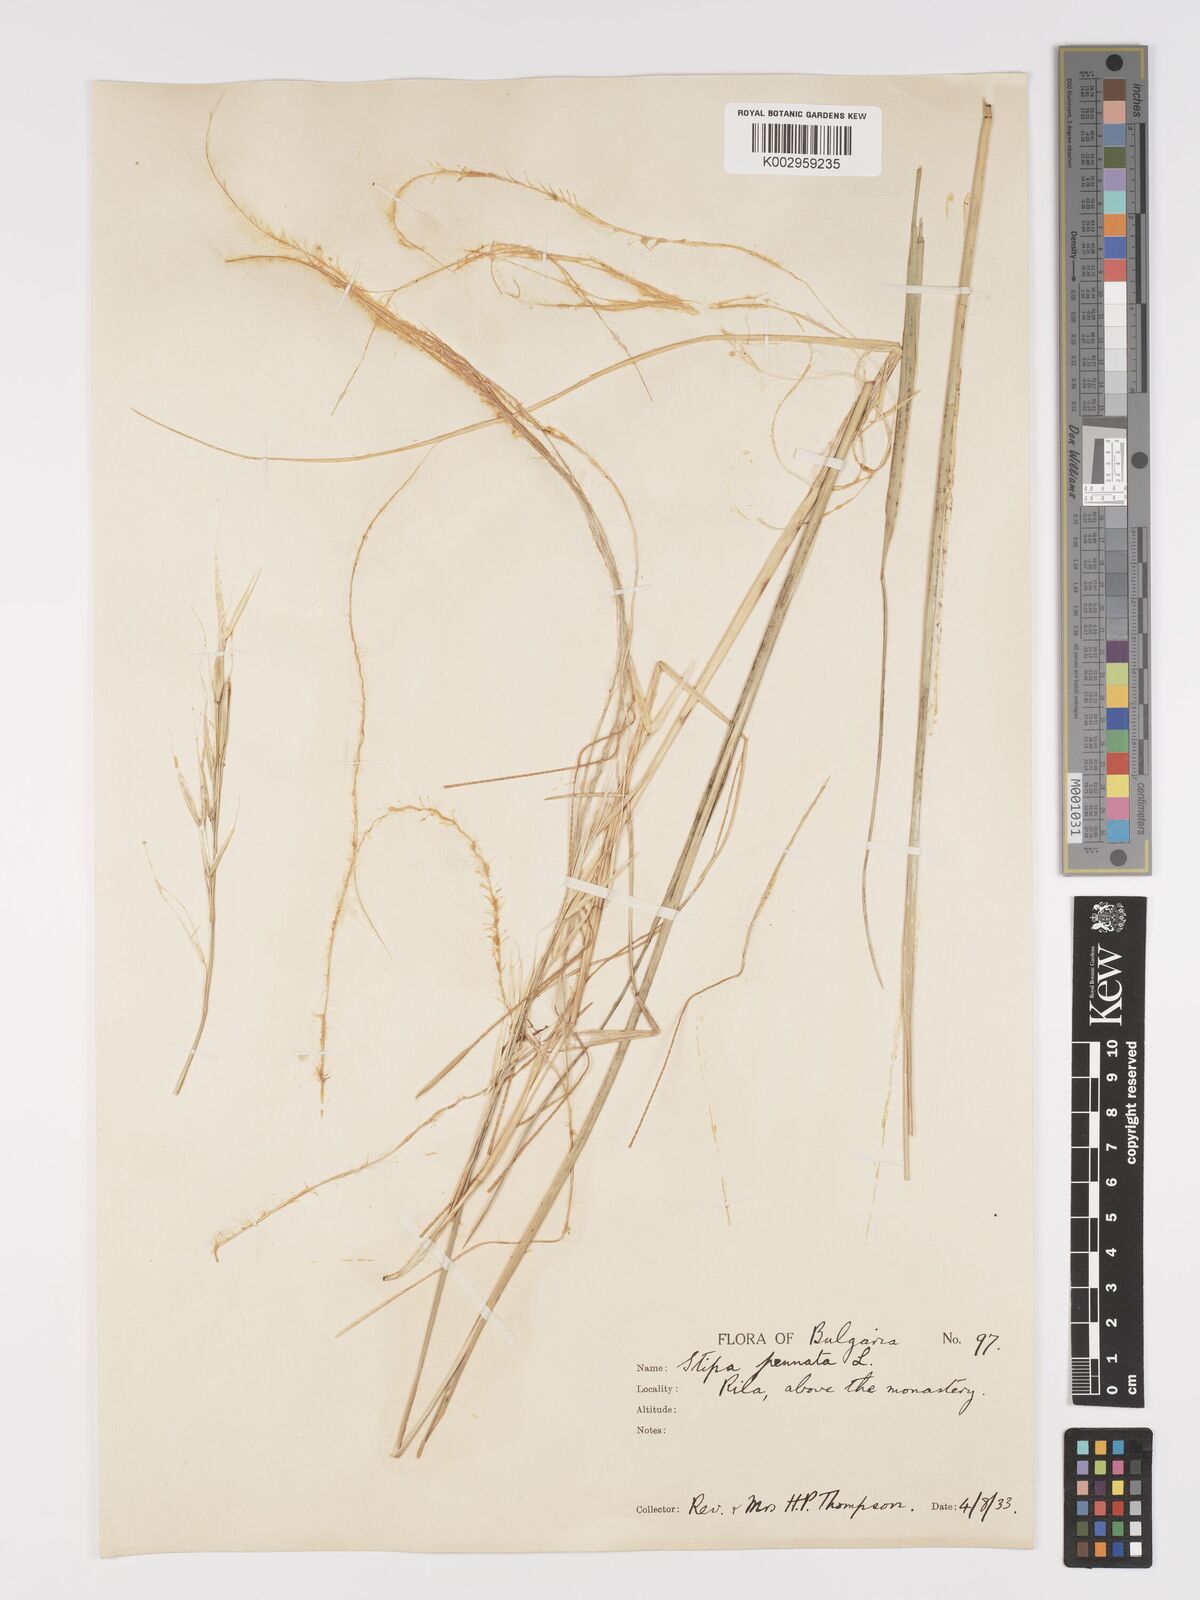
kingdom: Plantae
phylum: Tracheophyta
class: Liliopsida
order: Poales
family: Poaceae
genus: Stipa
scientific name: Stipa pennata
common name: European feather grass
